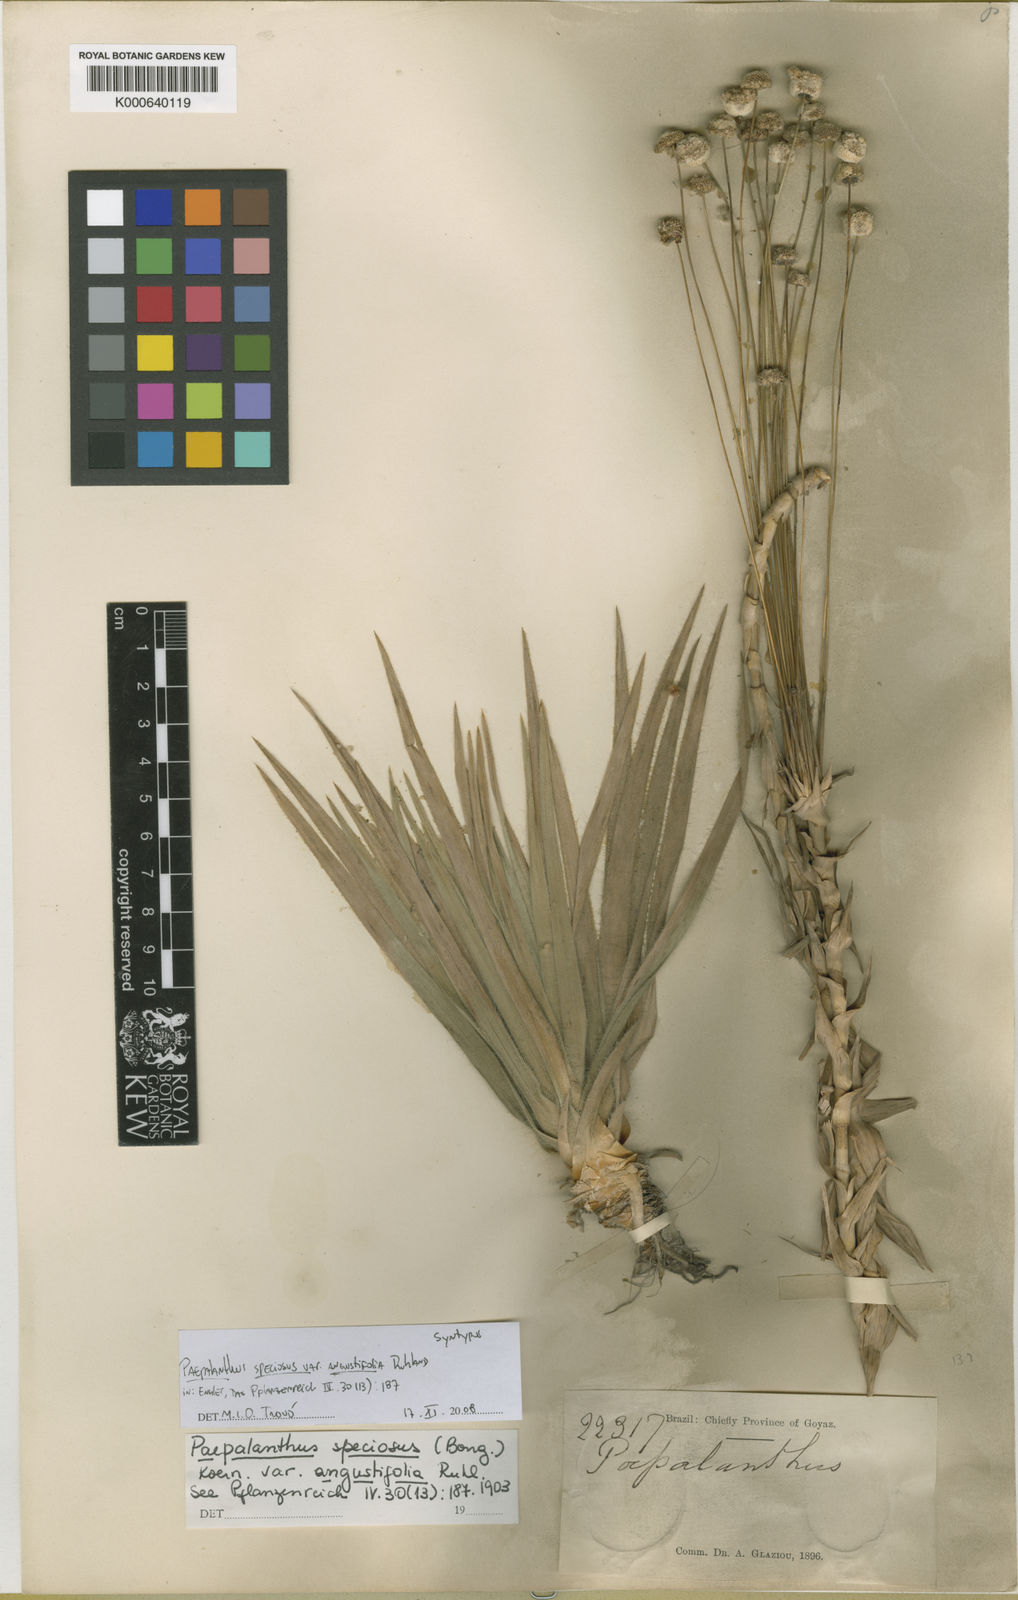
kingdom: Plantae
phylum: Tracheophyta
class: Liliopsida
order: Poales
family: Eriocaulaceae
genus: Paepalanthus
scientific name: Paepalanthus chiquitensis
